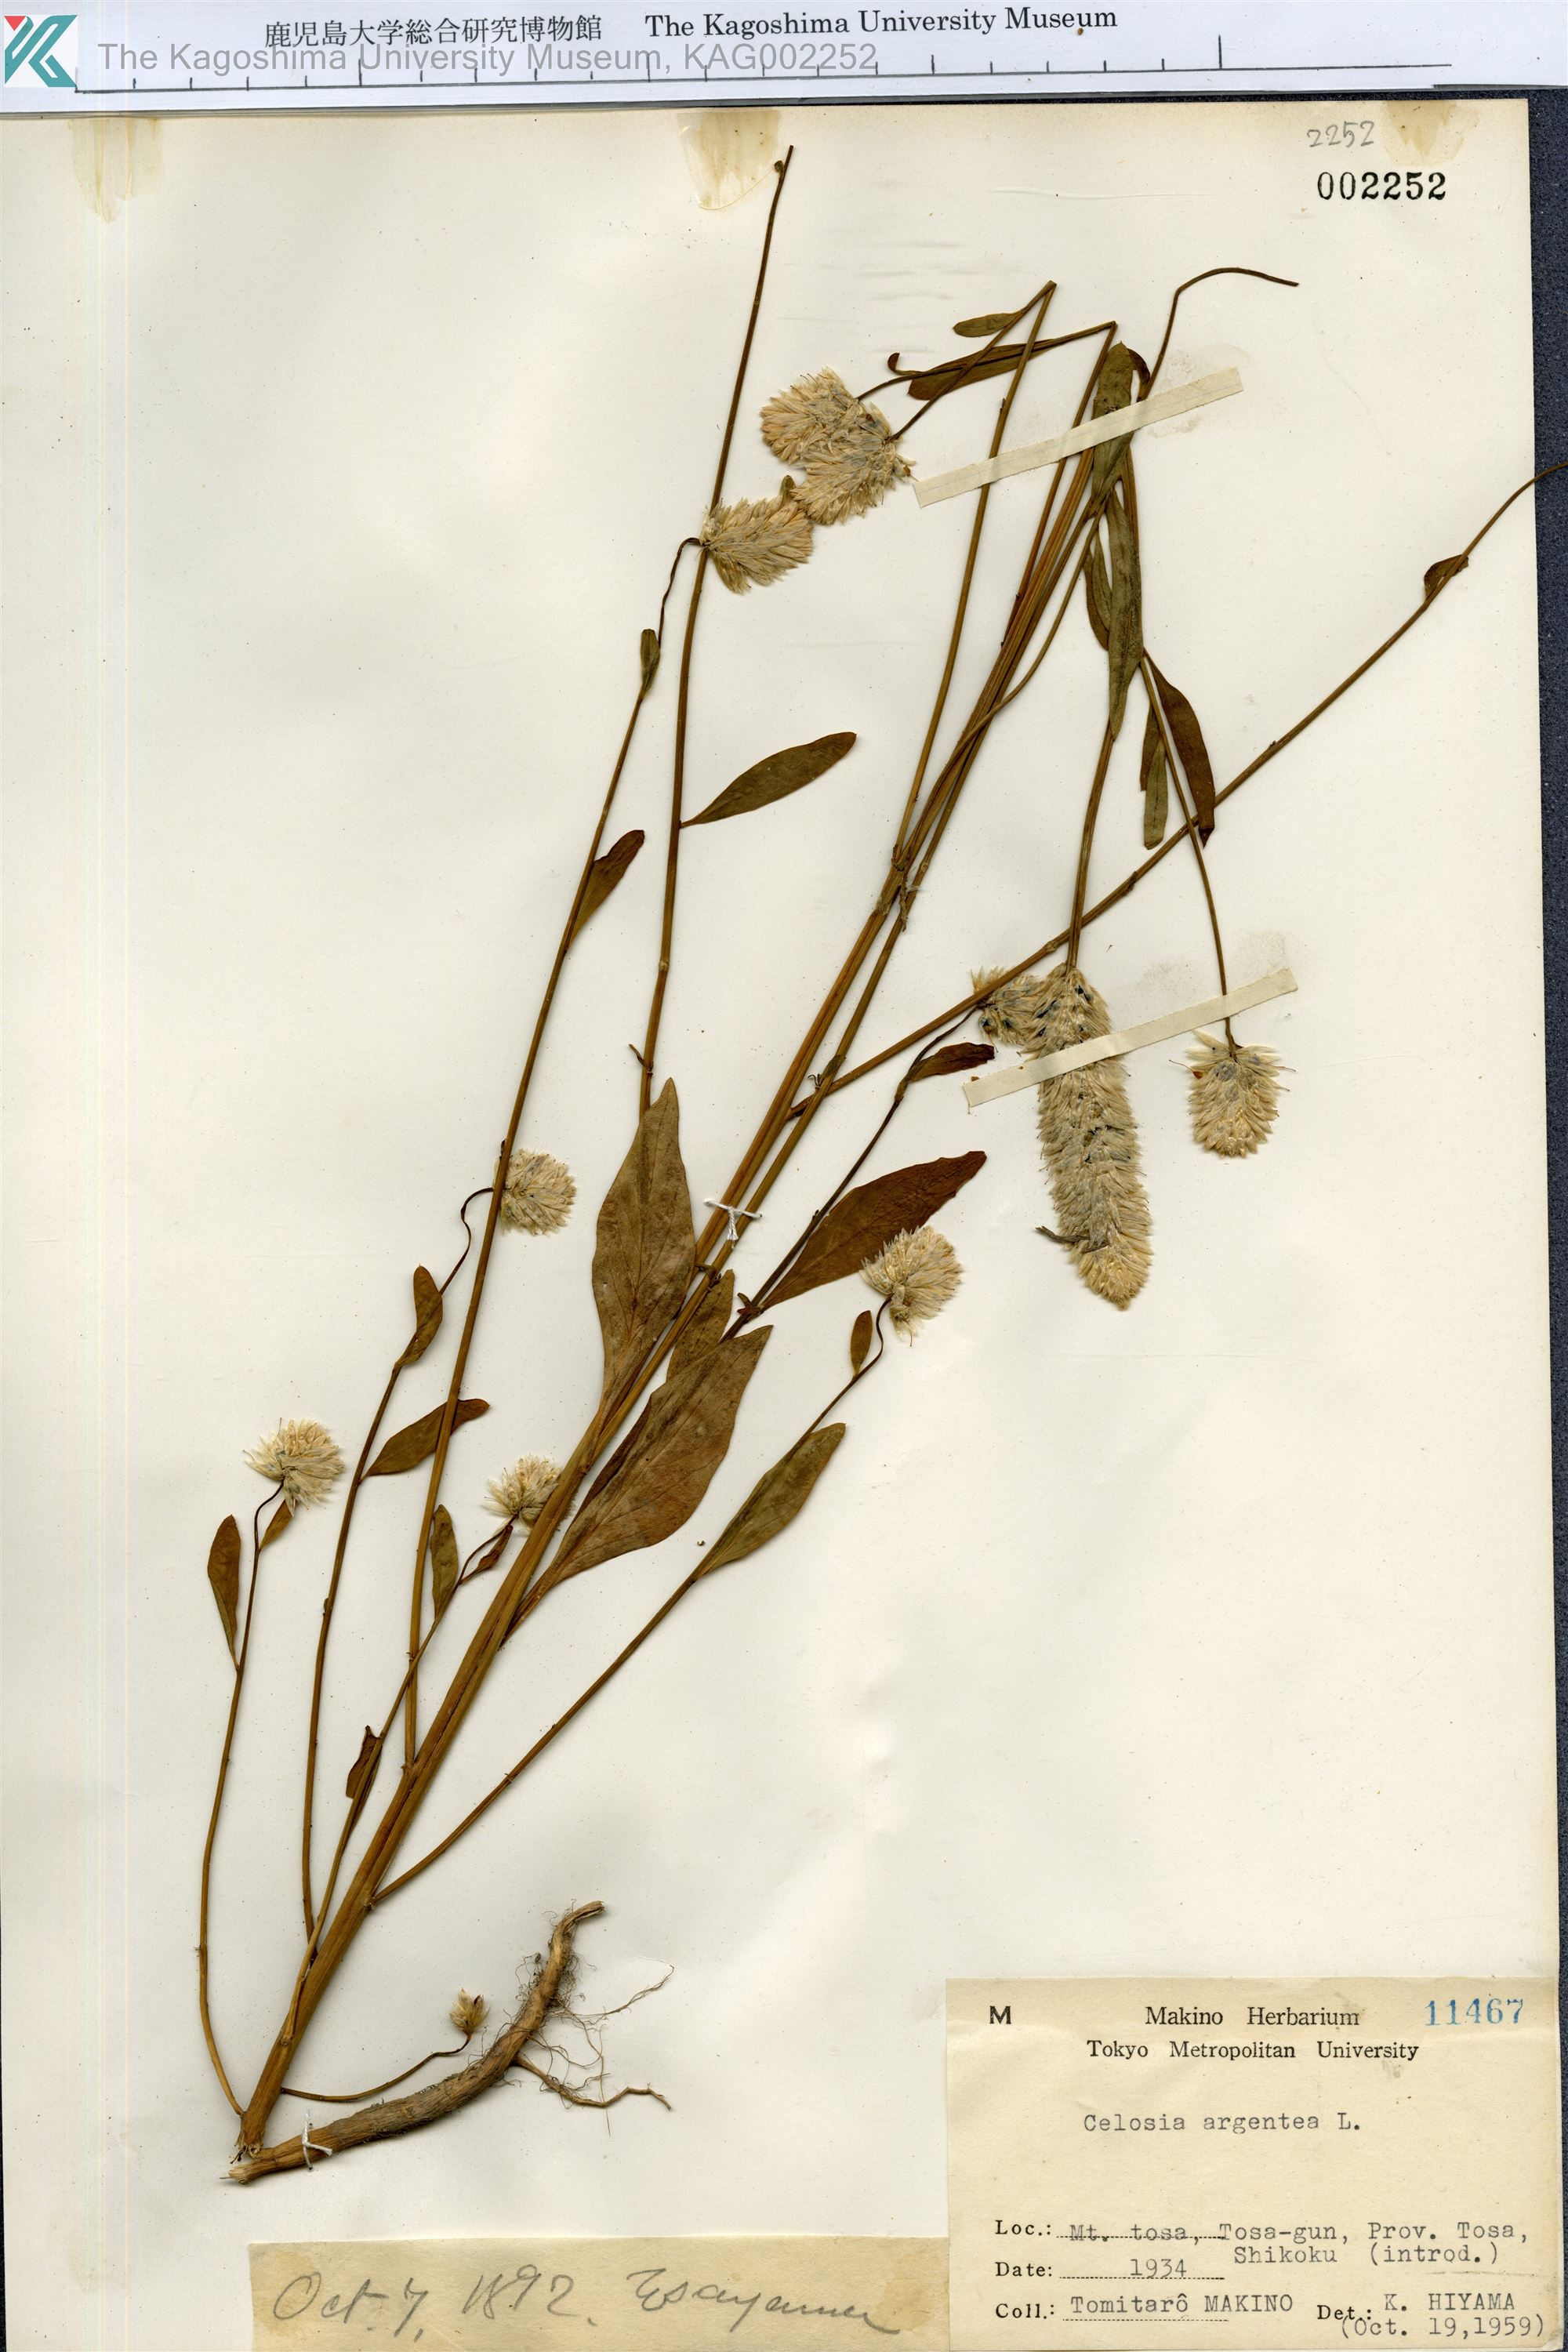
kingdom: Plantae
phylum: Tracheophyta
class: Magnoliopsida
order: Caryophyllales
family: Amaranthaceae
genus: Celosia
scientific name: Celosia argentea
